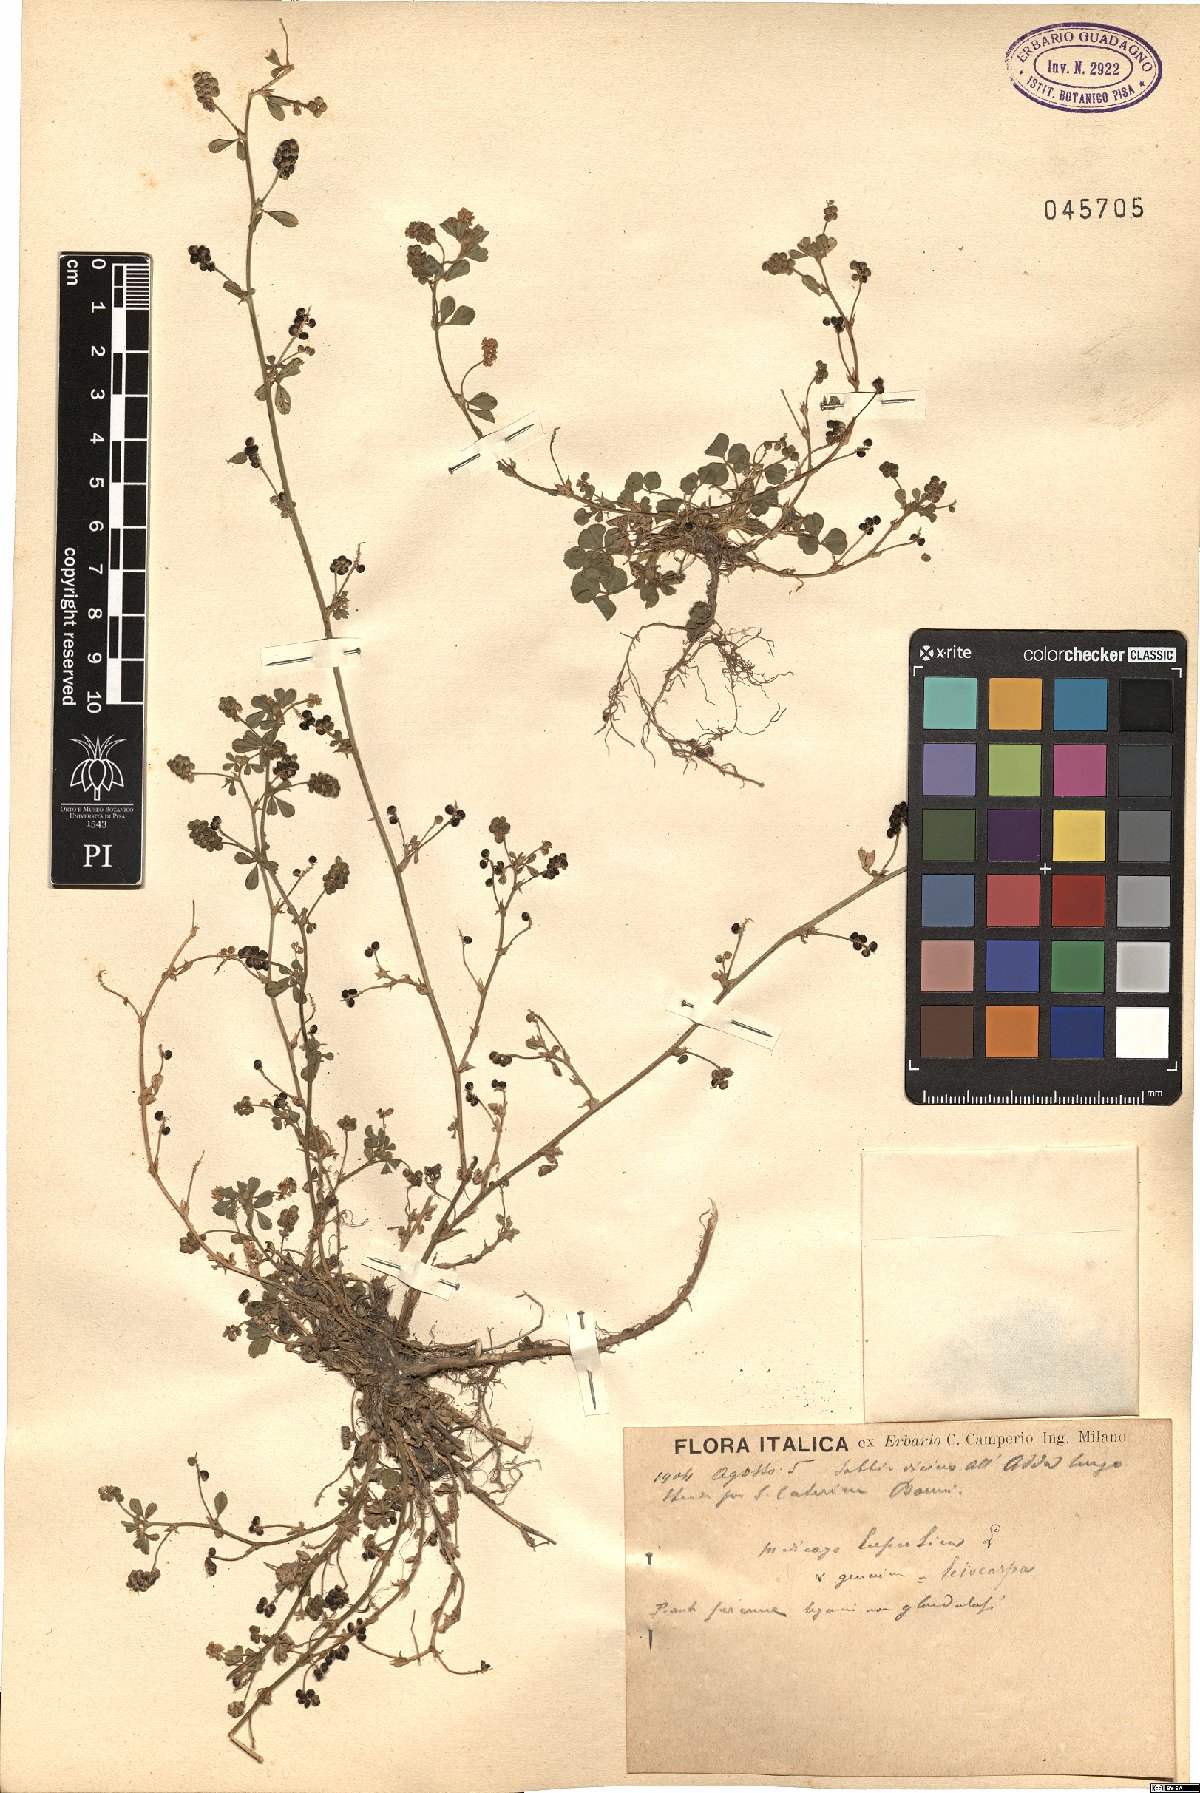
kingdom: Plantae
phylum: Tracheophyta
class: Magnoliopsida
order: Fabales
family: Fabaceae
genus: Medicago
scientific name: Medicago lupulina
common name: Black medick
